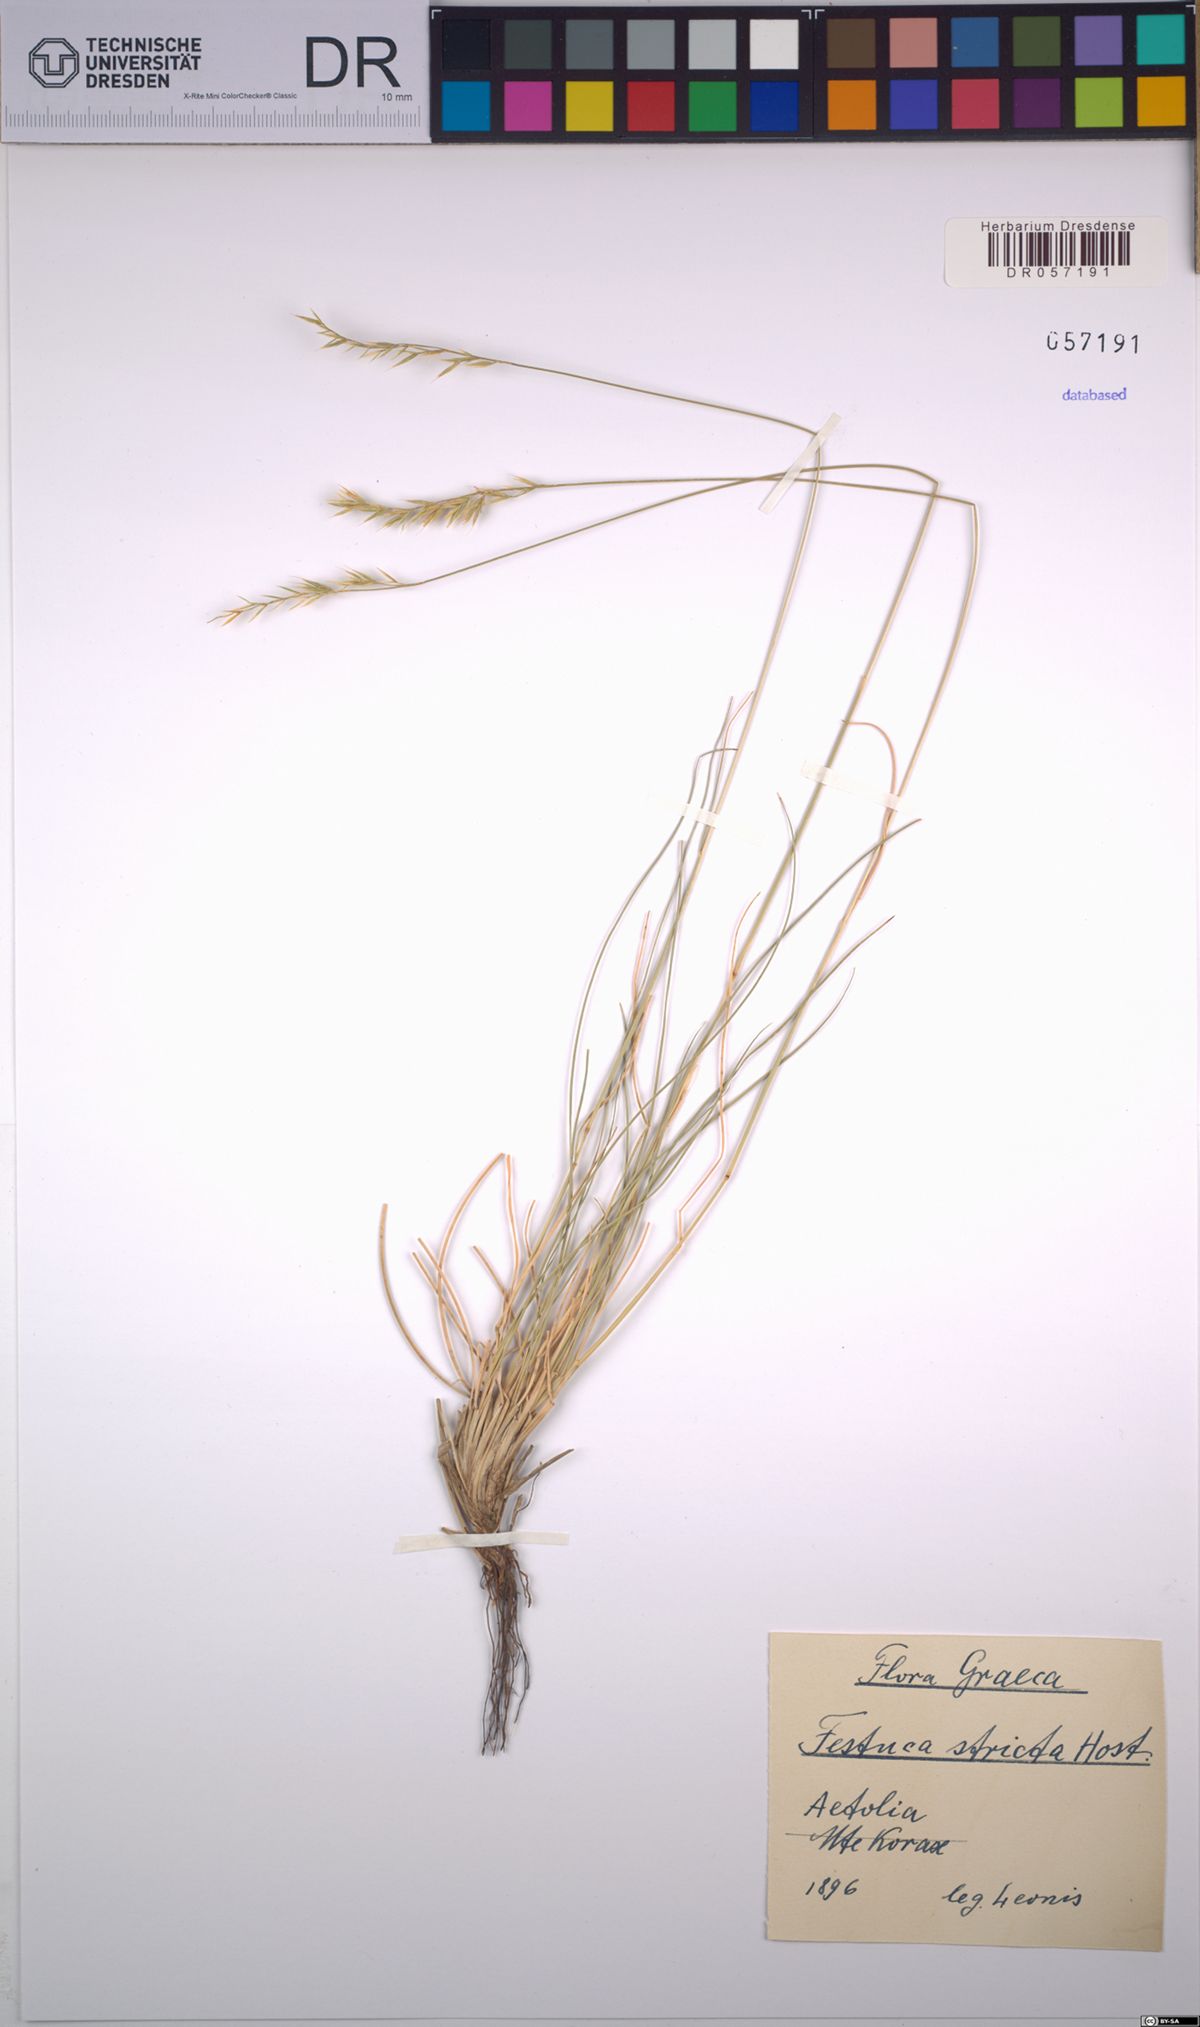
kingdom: Plantae
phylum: Tracheophyta
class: Liliopsida
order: Poales
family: Poaceae
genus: Festuca
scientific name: Festuca stricta
